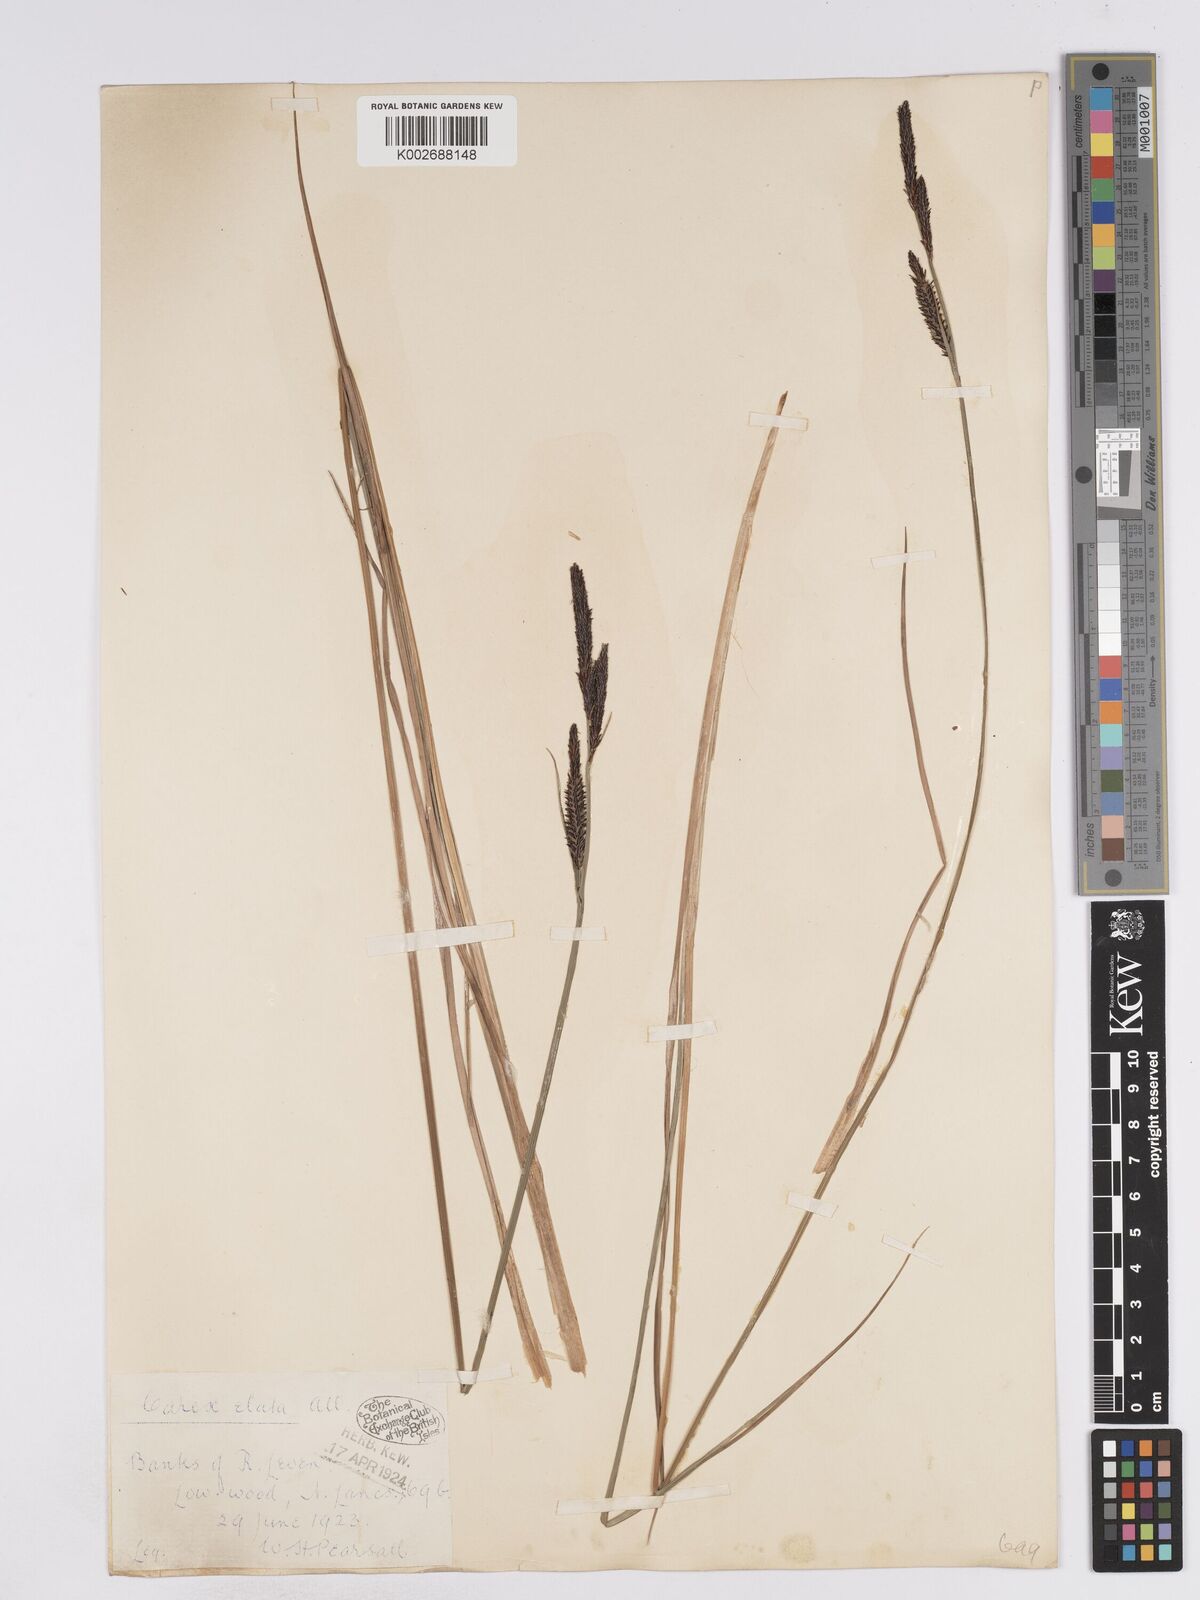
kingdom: Plantae
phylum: Tracheophyta
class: Liliopsida
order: Poales
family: Cyperaceae
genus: Carex
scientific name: Carex elata
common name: Tufted sedge
